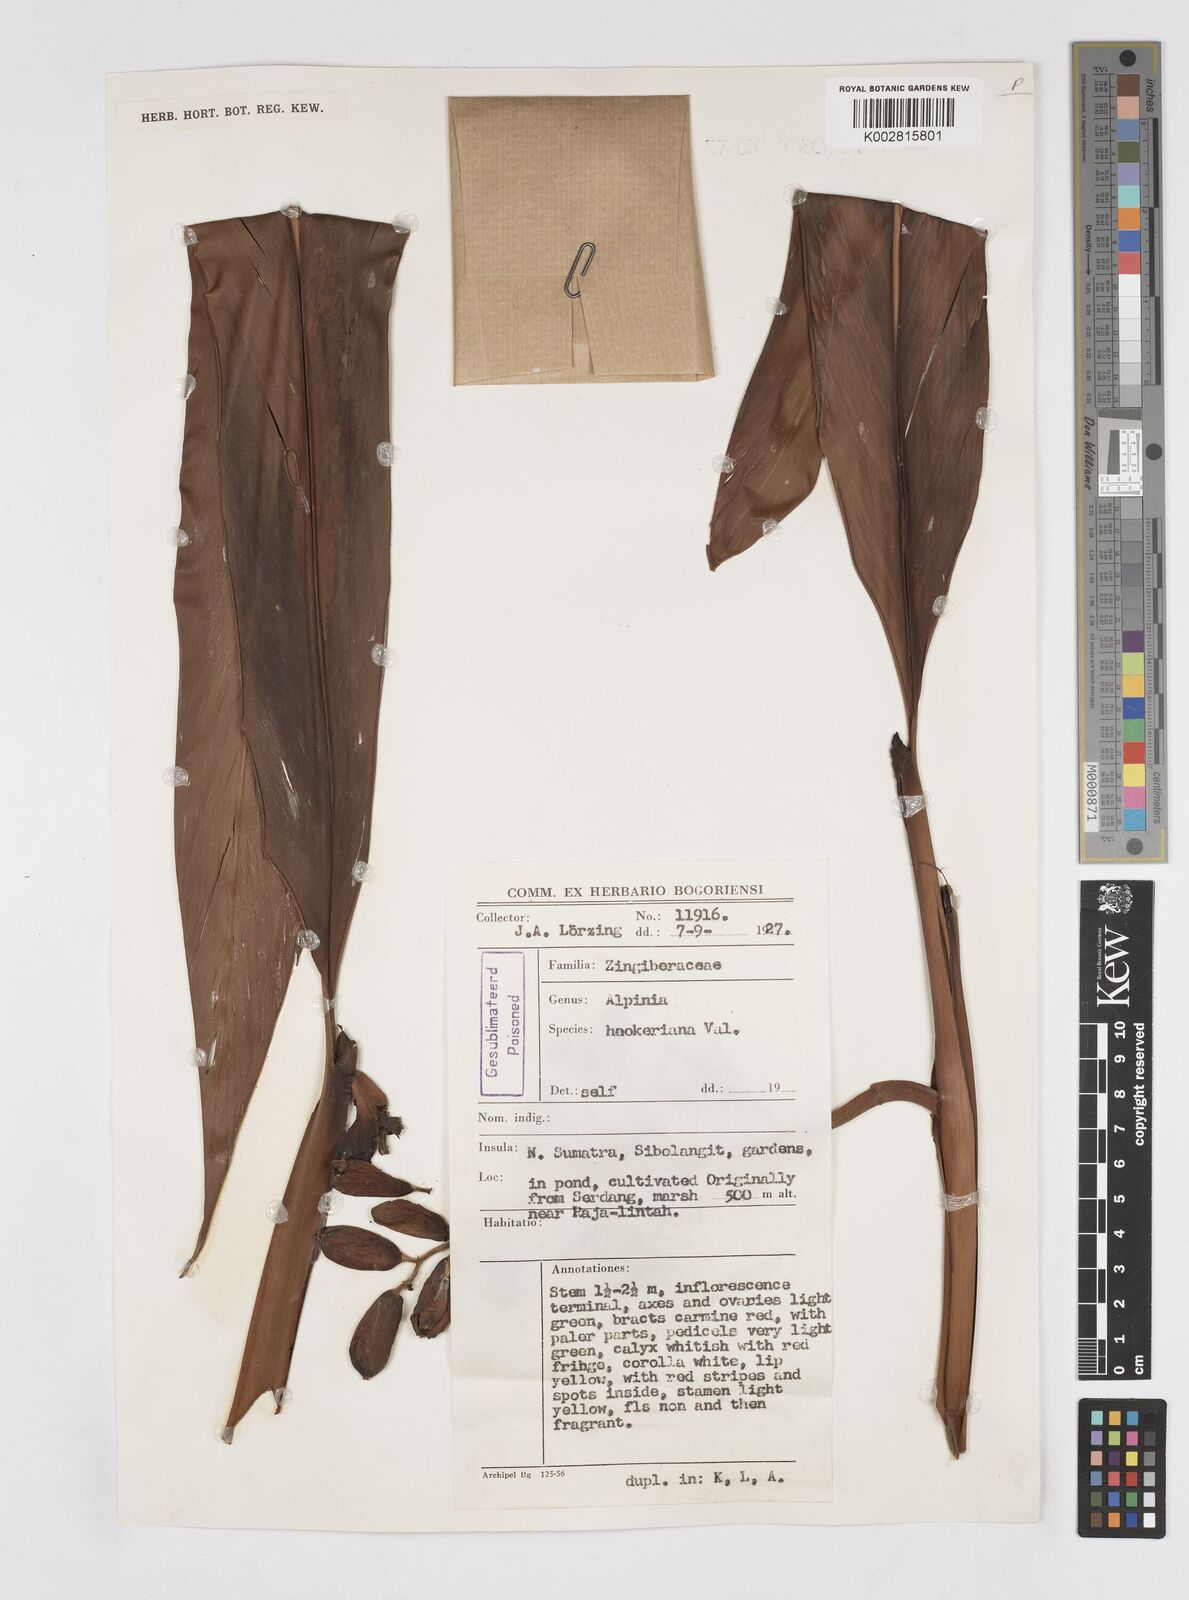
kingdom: Plantae
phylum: Tracheophyta
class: Liliopsida
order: Zingiberales
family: Zingiberaceae
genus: Alpinia
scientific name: Alpinia latilabris
